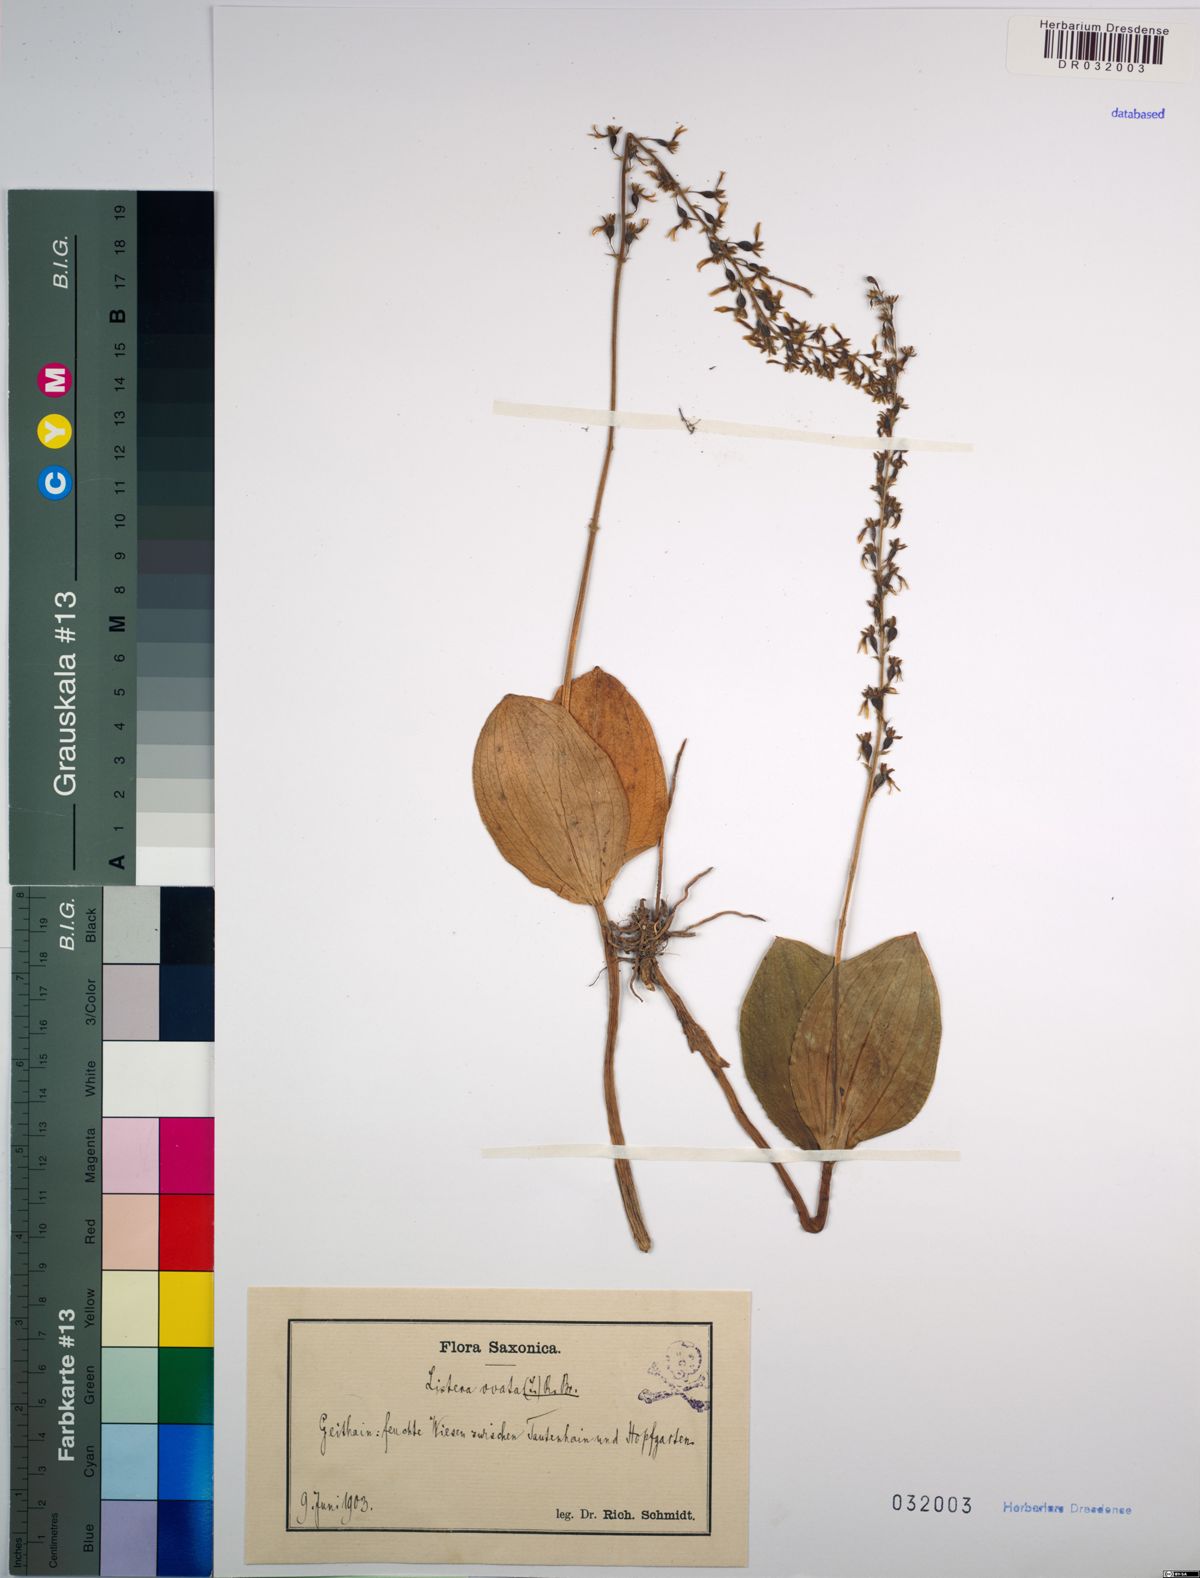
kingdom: Plantae
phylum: Tracheophyta
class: Liliopsida
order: Asparagales
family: Orchidaceae
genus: Neottia
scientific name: Neottia ovata
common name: Common twayblade
